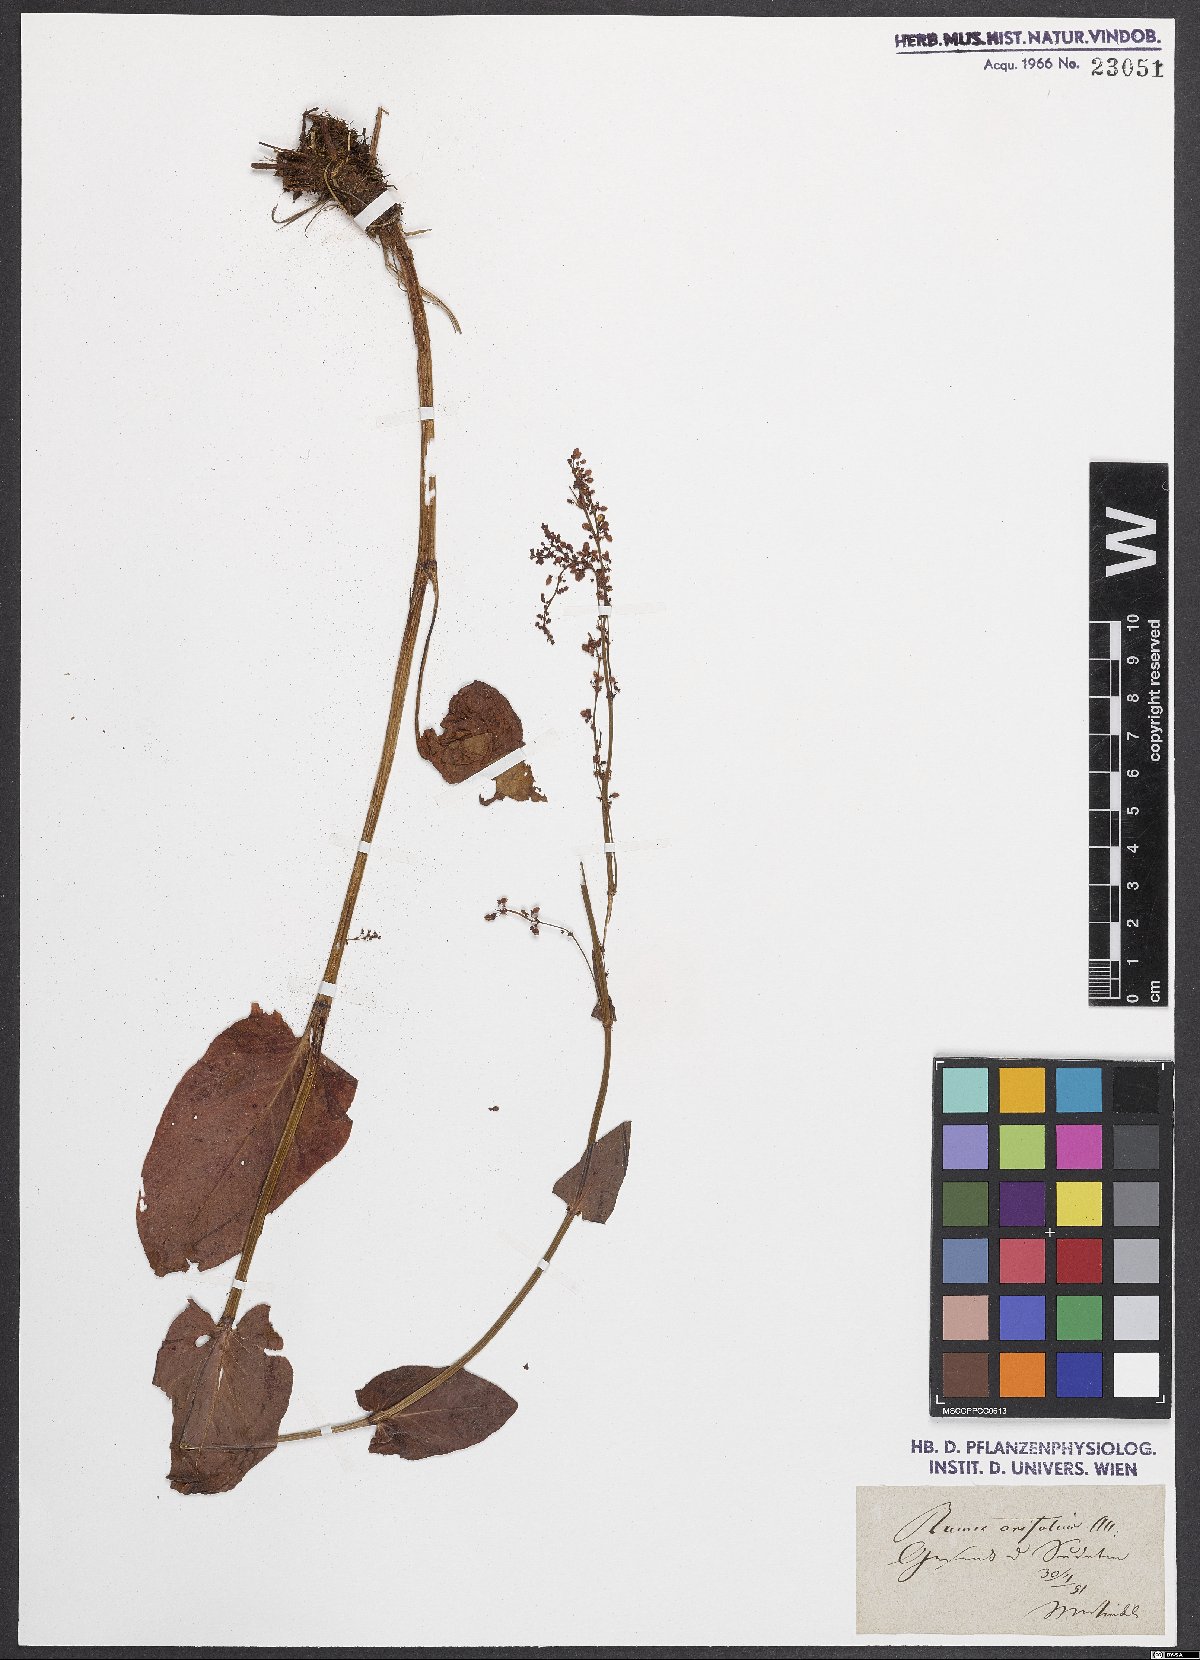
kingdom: Plantae
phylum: Tracheophyta
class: Magnoliopsida
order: Caryophyllales
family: Polygonaceae
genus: Rumex
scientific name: Rumex arifolius
